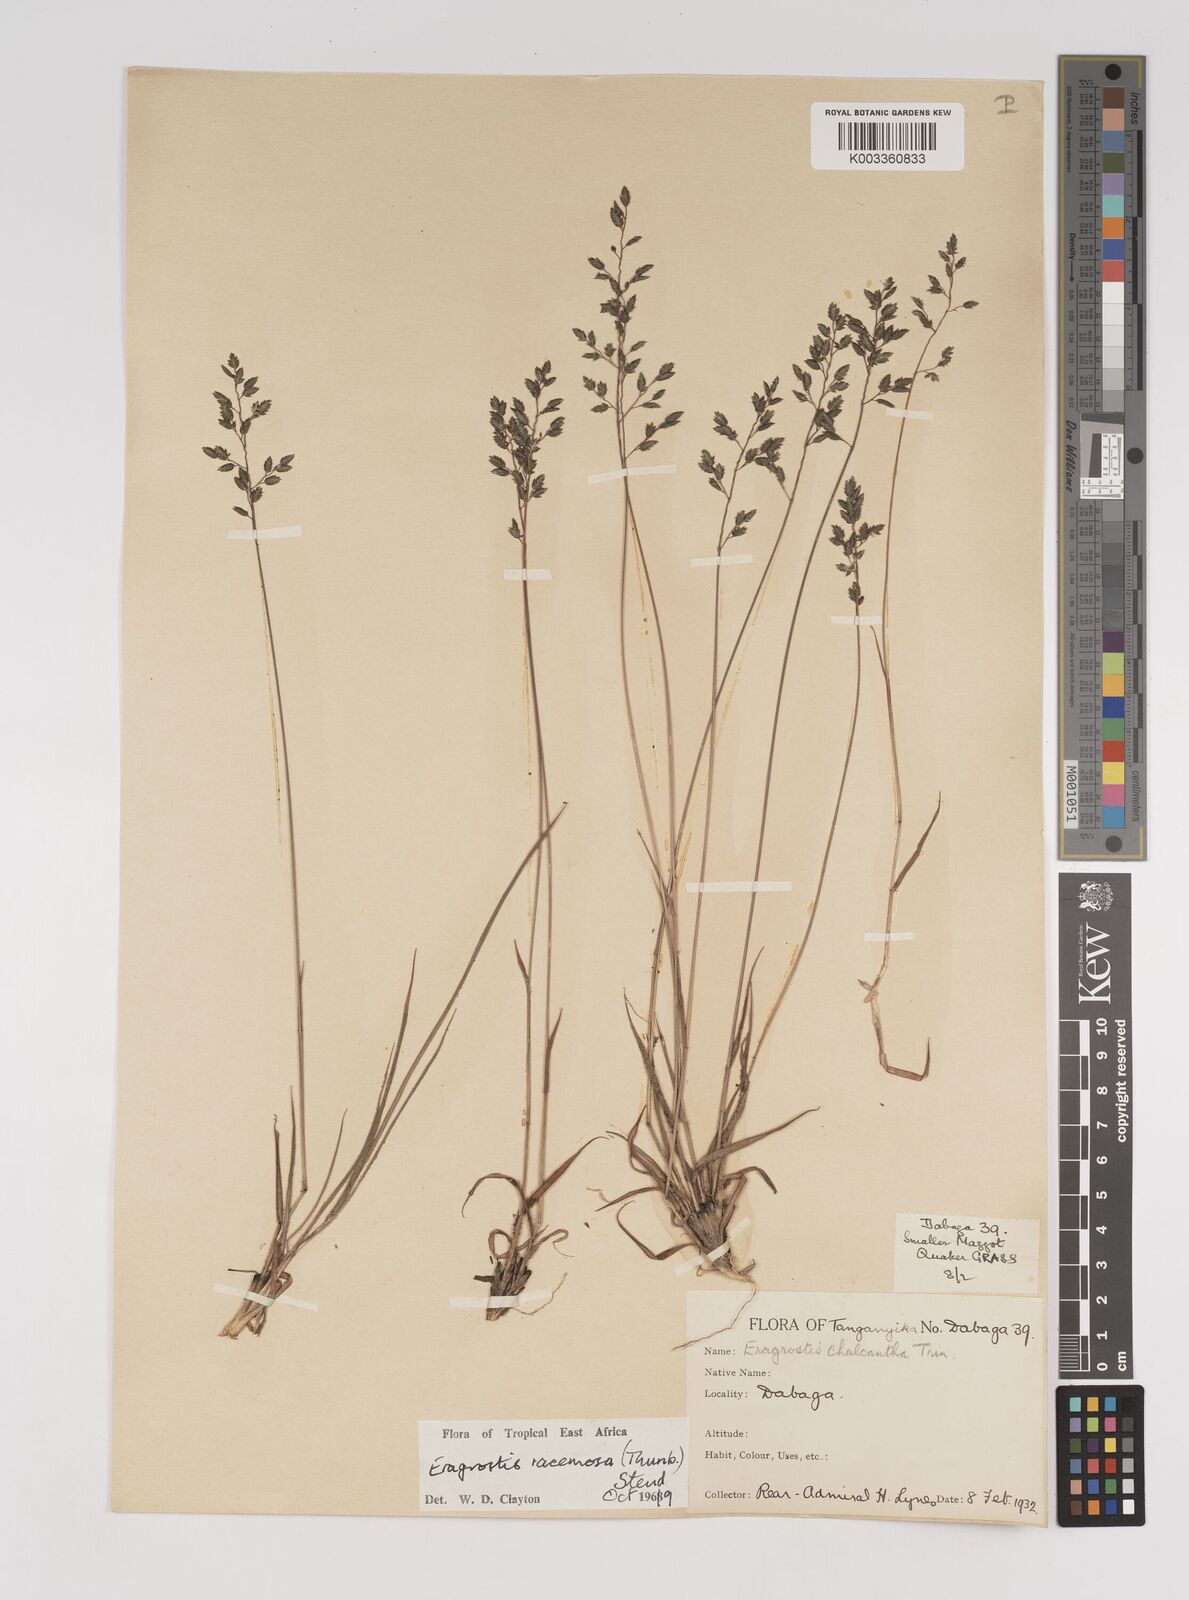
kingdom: Plantae
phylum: Tracheophyta
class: Liliopsida
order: Poales
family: Poaceae
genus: Eragrostis
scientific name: Eragrostis racemosa
